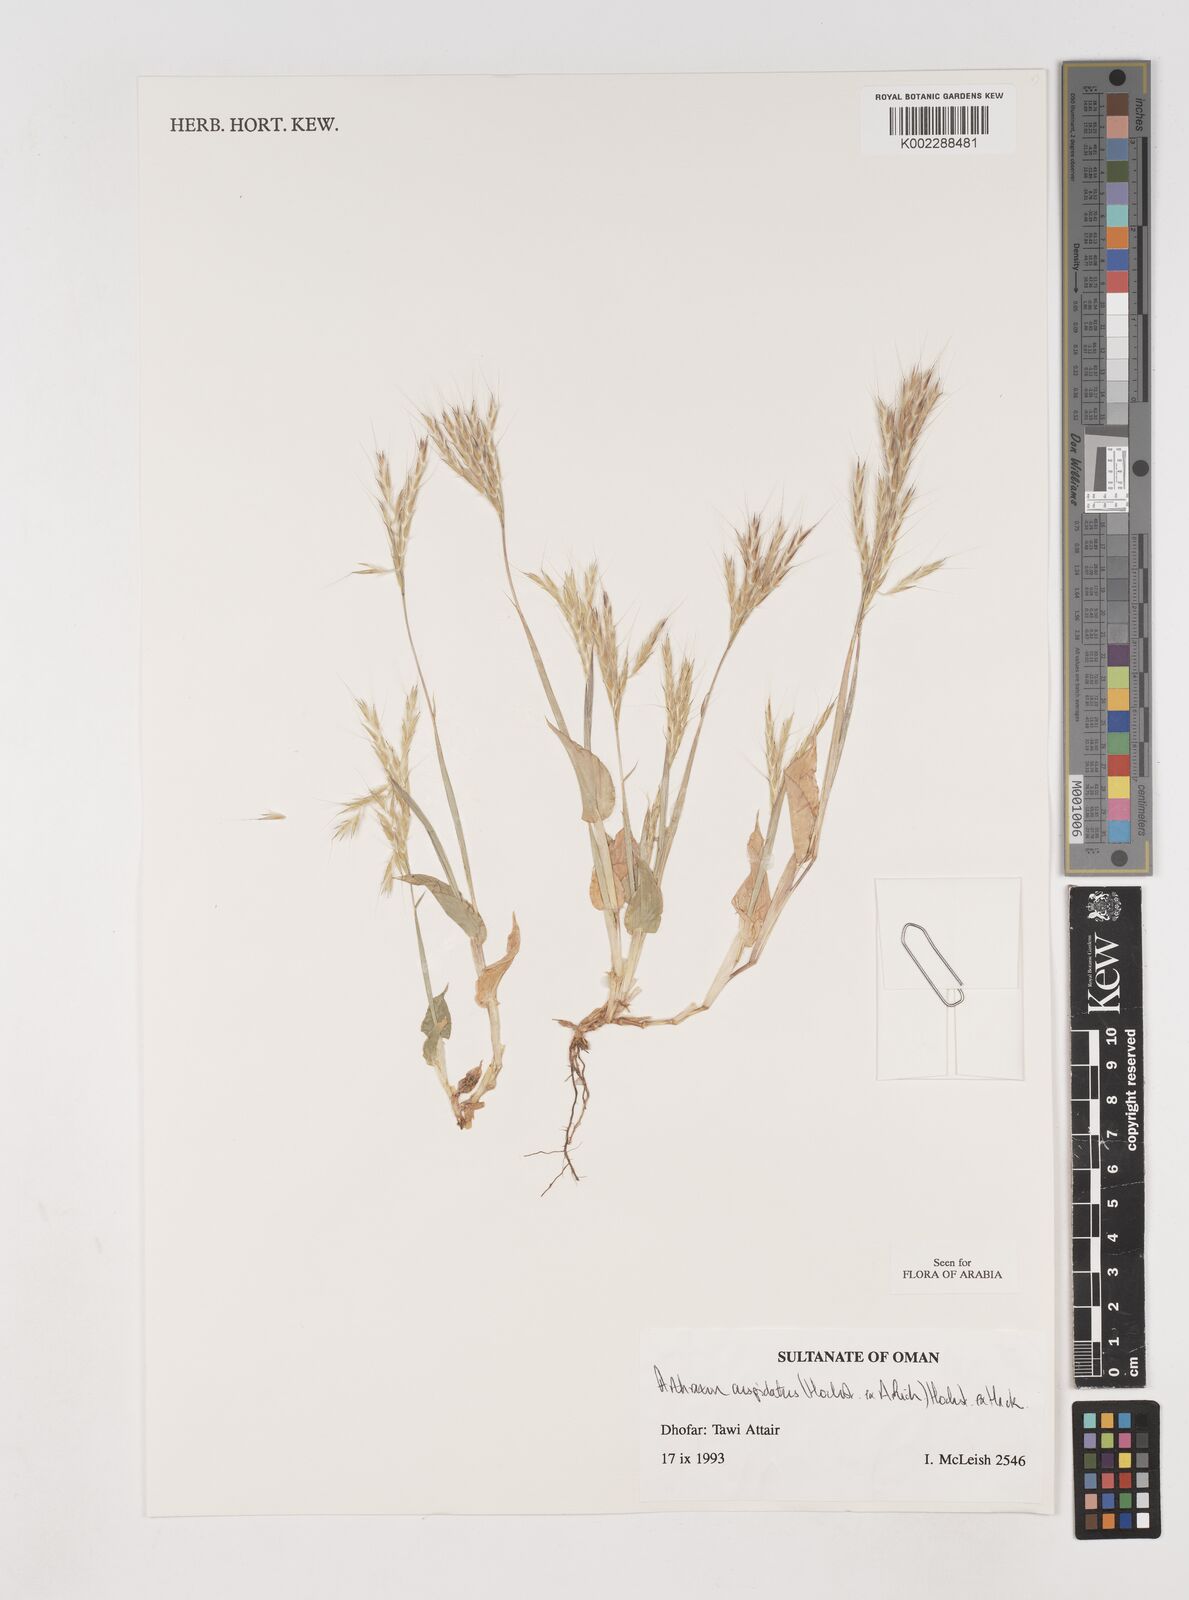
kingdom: Plantae
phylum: Tracheophyta
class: Liliopsida
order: Poales
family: Poaceae
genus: Arthraxon
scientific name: Arthraxon cuspidatus
